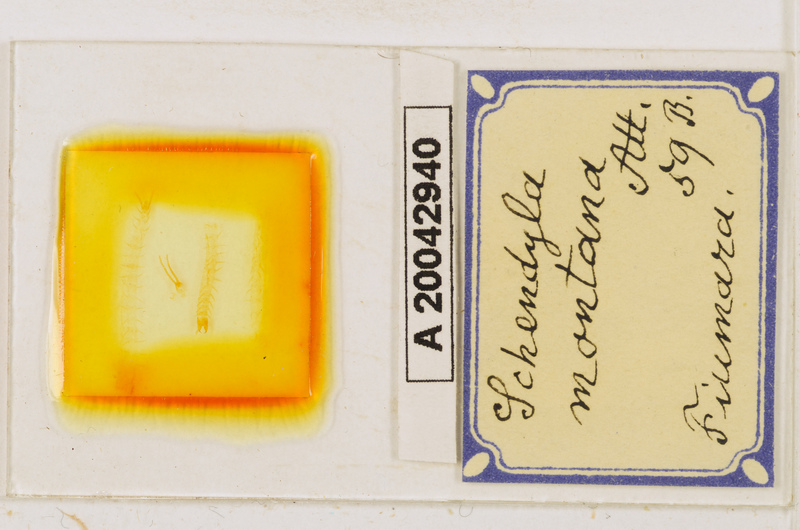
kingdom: Animalia
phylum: Arthropoda
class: Chilopoda
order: Geophilomorpha
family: Schendylidae
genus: Schendyla
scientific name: Schendyla montana
